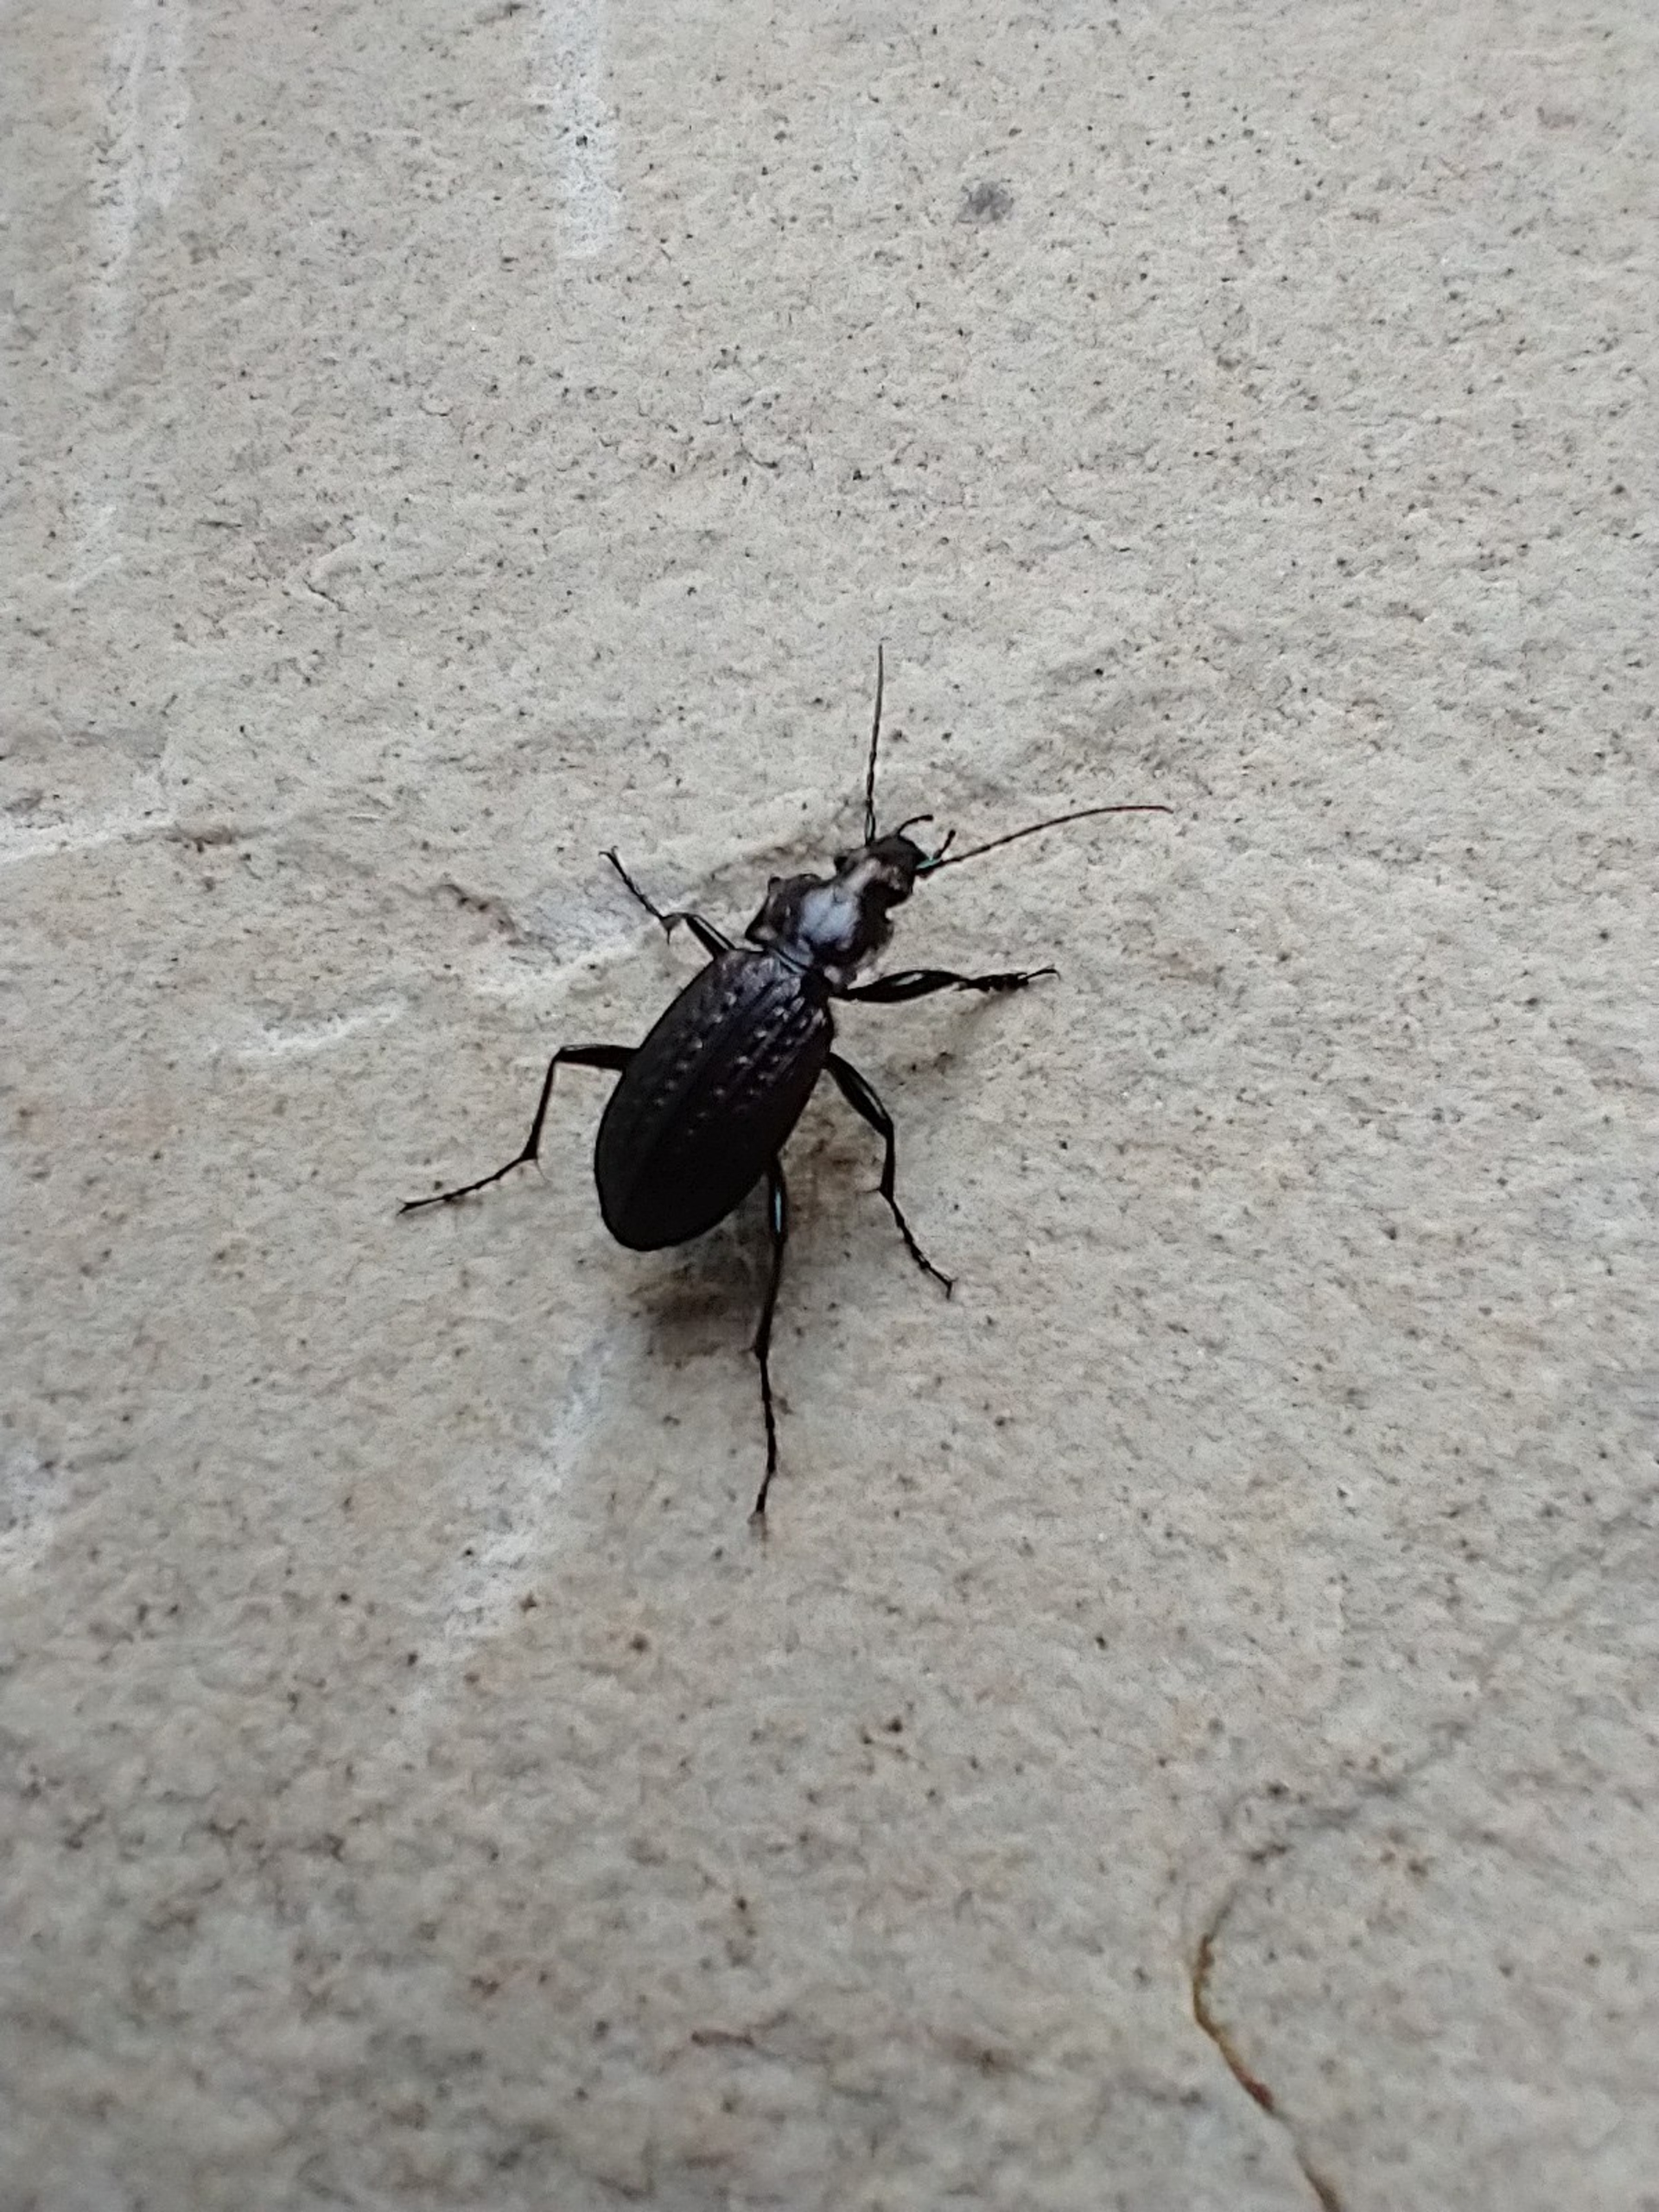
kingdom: Animalia
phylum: Arthropoda
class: Insecta
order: Coleoptera
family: Carabidae
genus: Carabus
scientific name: Carabus granulatus
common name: Kornet løber
